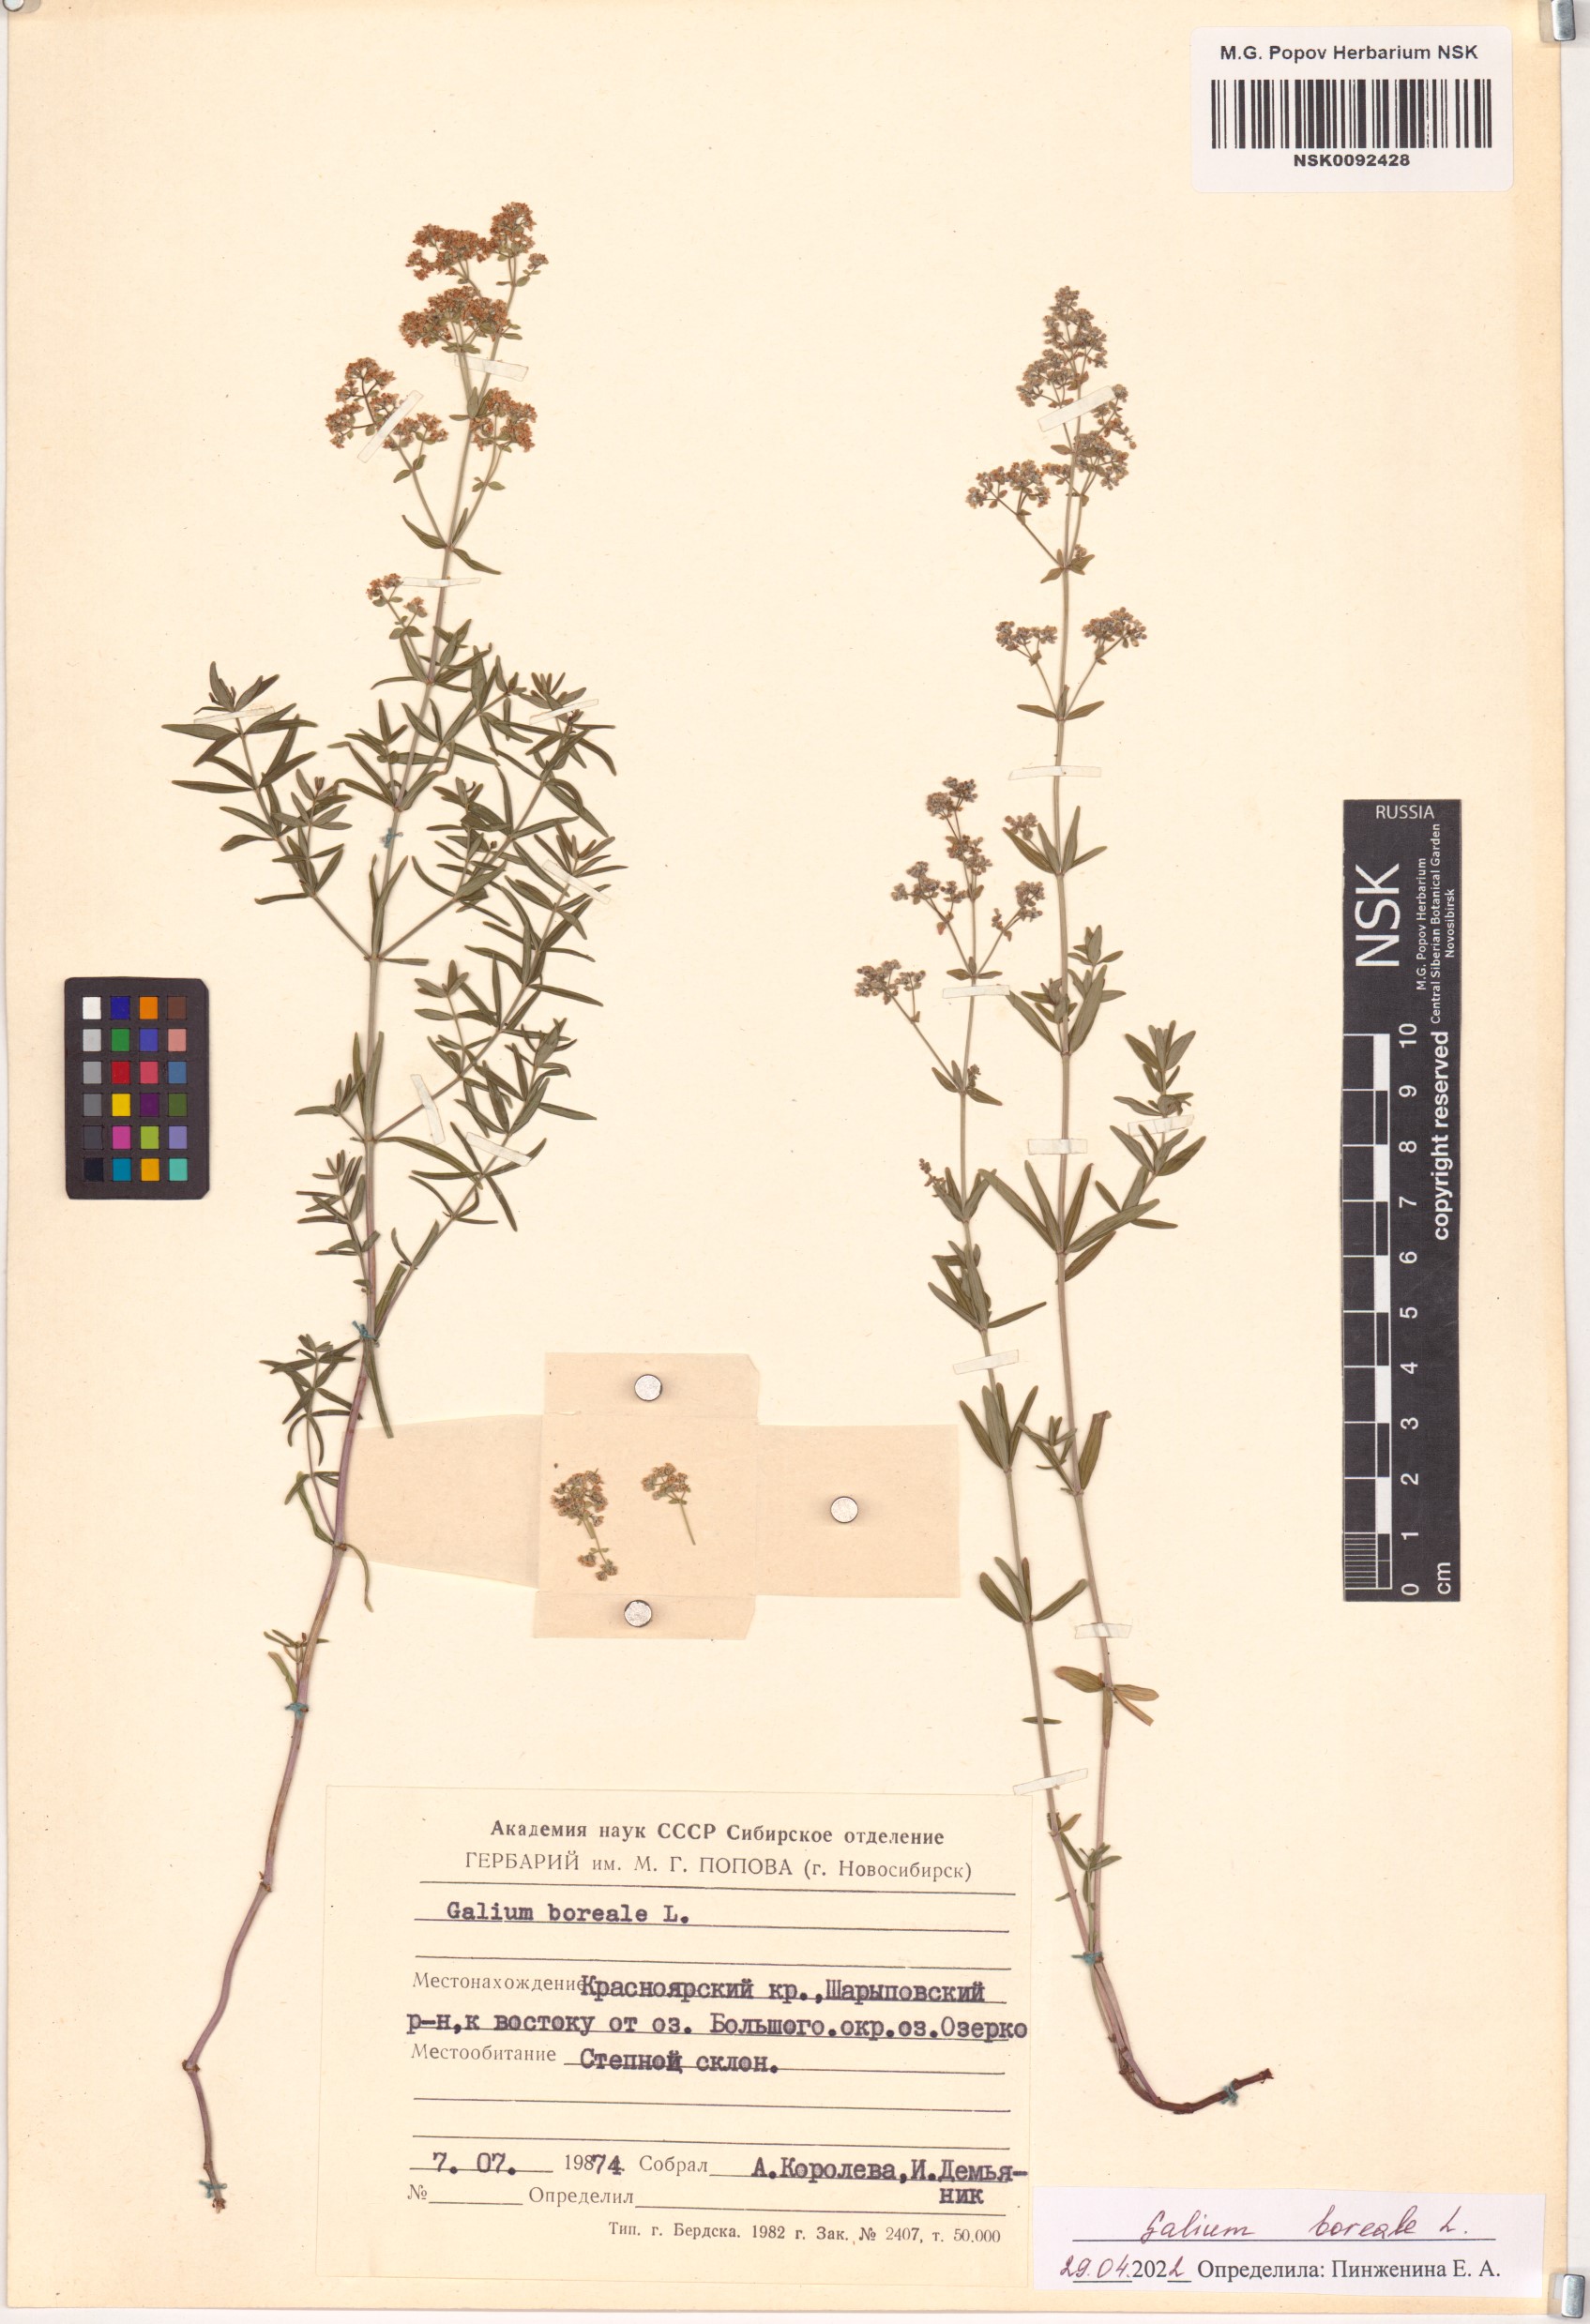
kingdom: Plantae
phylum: Tracheophyta
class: Magnoliopsida
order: Gentianales
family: Rubiaceae
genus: Galium
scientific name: Galium boreale
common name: Northern bedstraw
